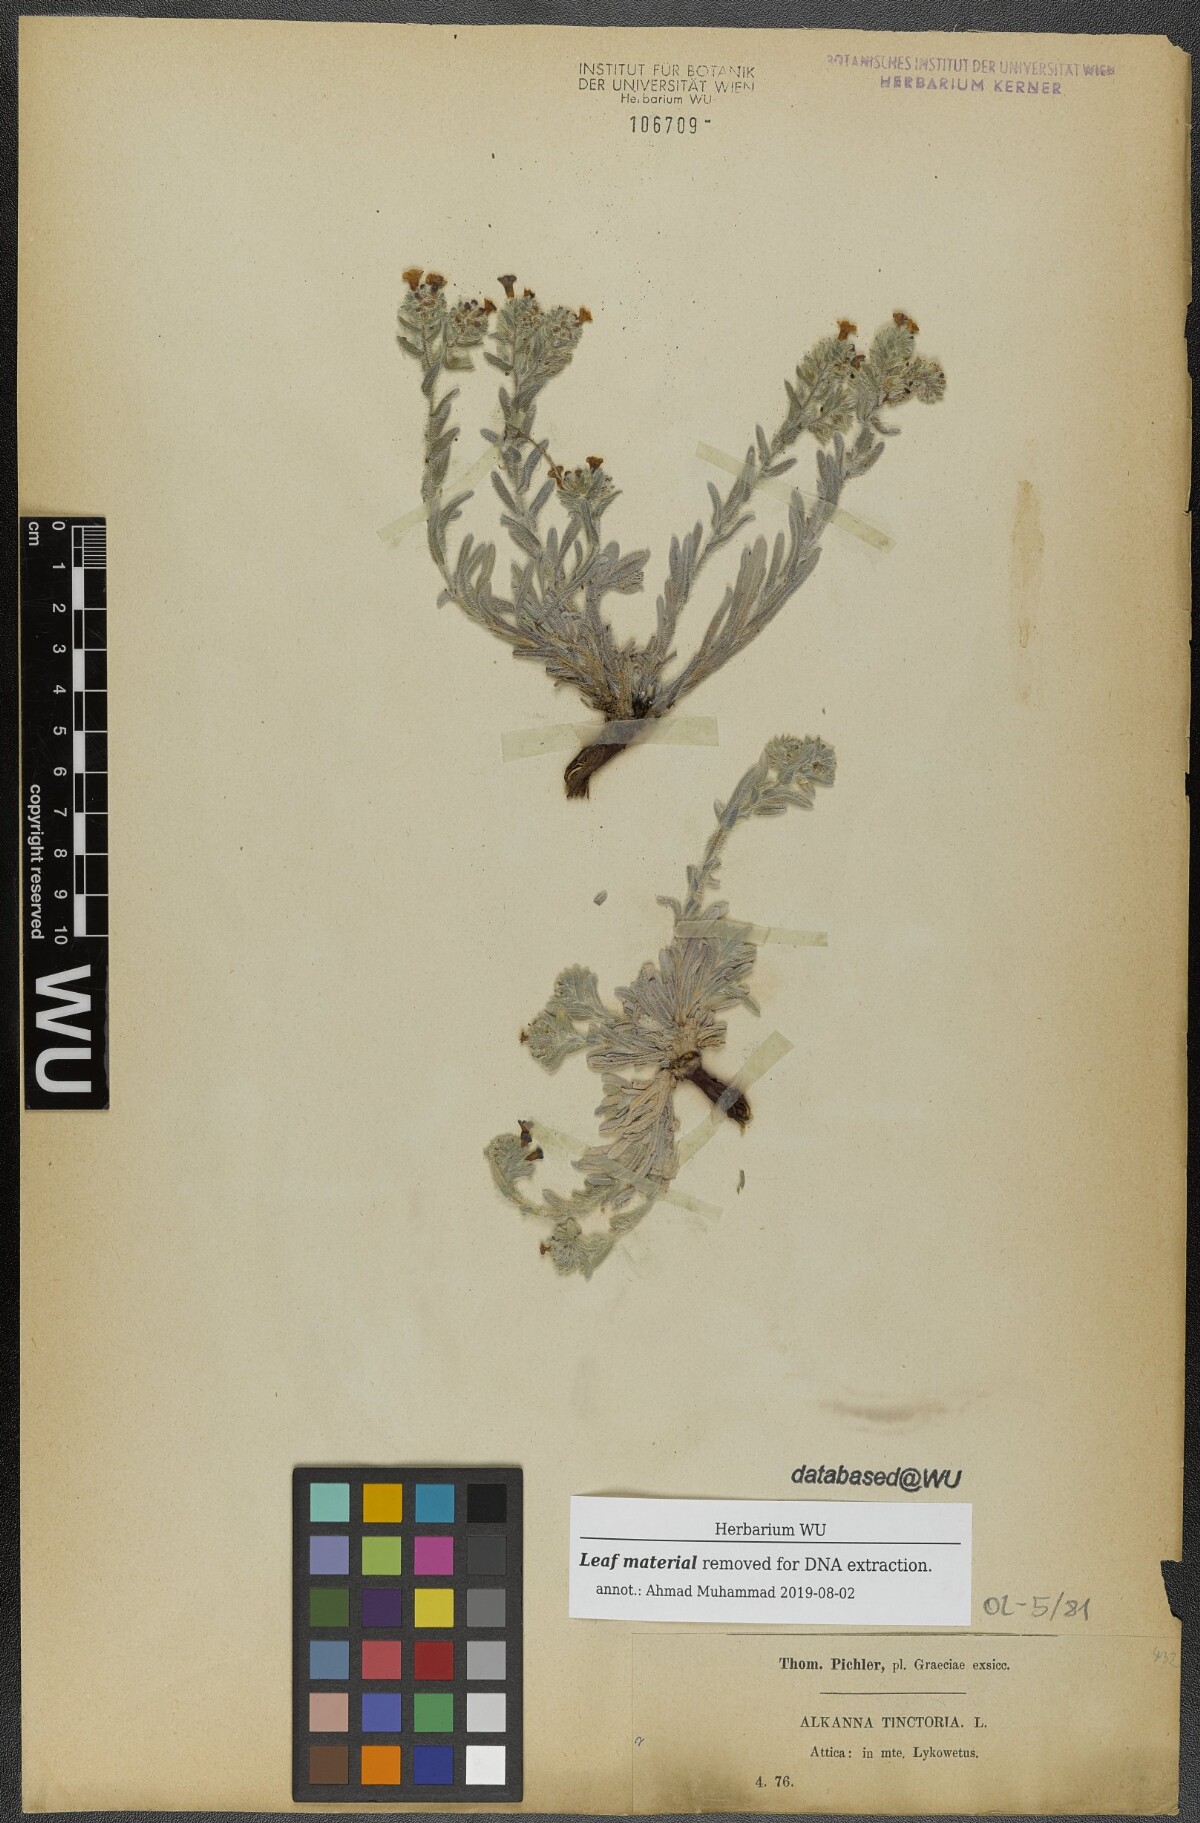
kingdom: Plantae
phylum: Tracheophyta
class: Magnoliopsida
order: Boraginales
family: Boraginaceae
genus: Alkanna
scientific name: Alkanna tinctoria
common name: Dyer's-alkanet
